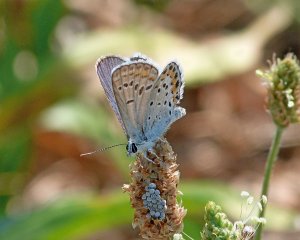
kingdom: Animalia
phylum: Arthropoda
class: Insecta
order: Lepidoptera
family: Lycaenidae
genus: Lycaeides
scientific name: Lycaeides melissa
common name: Melissa Blue
